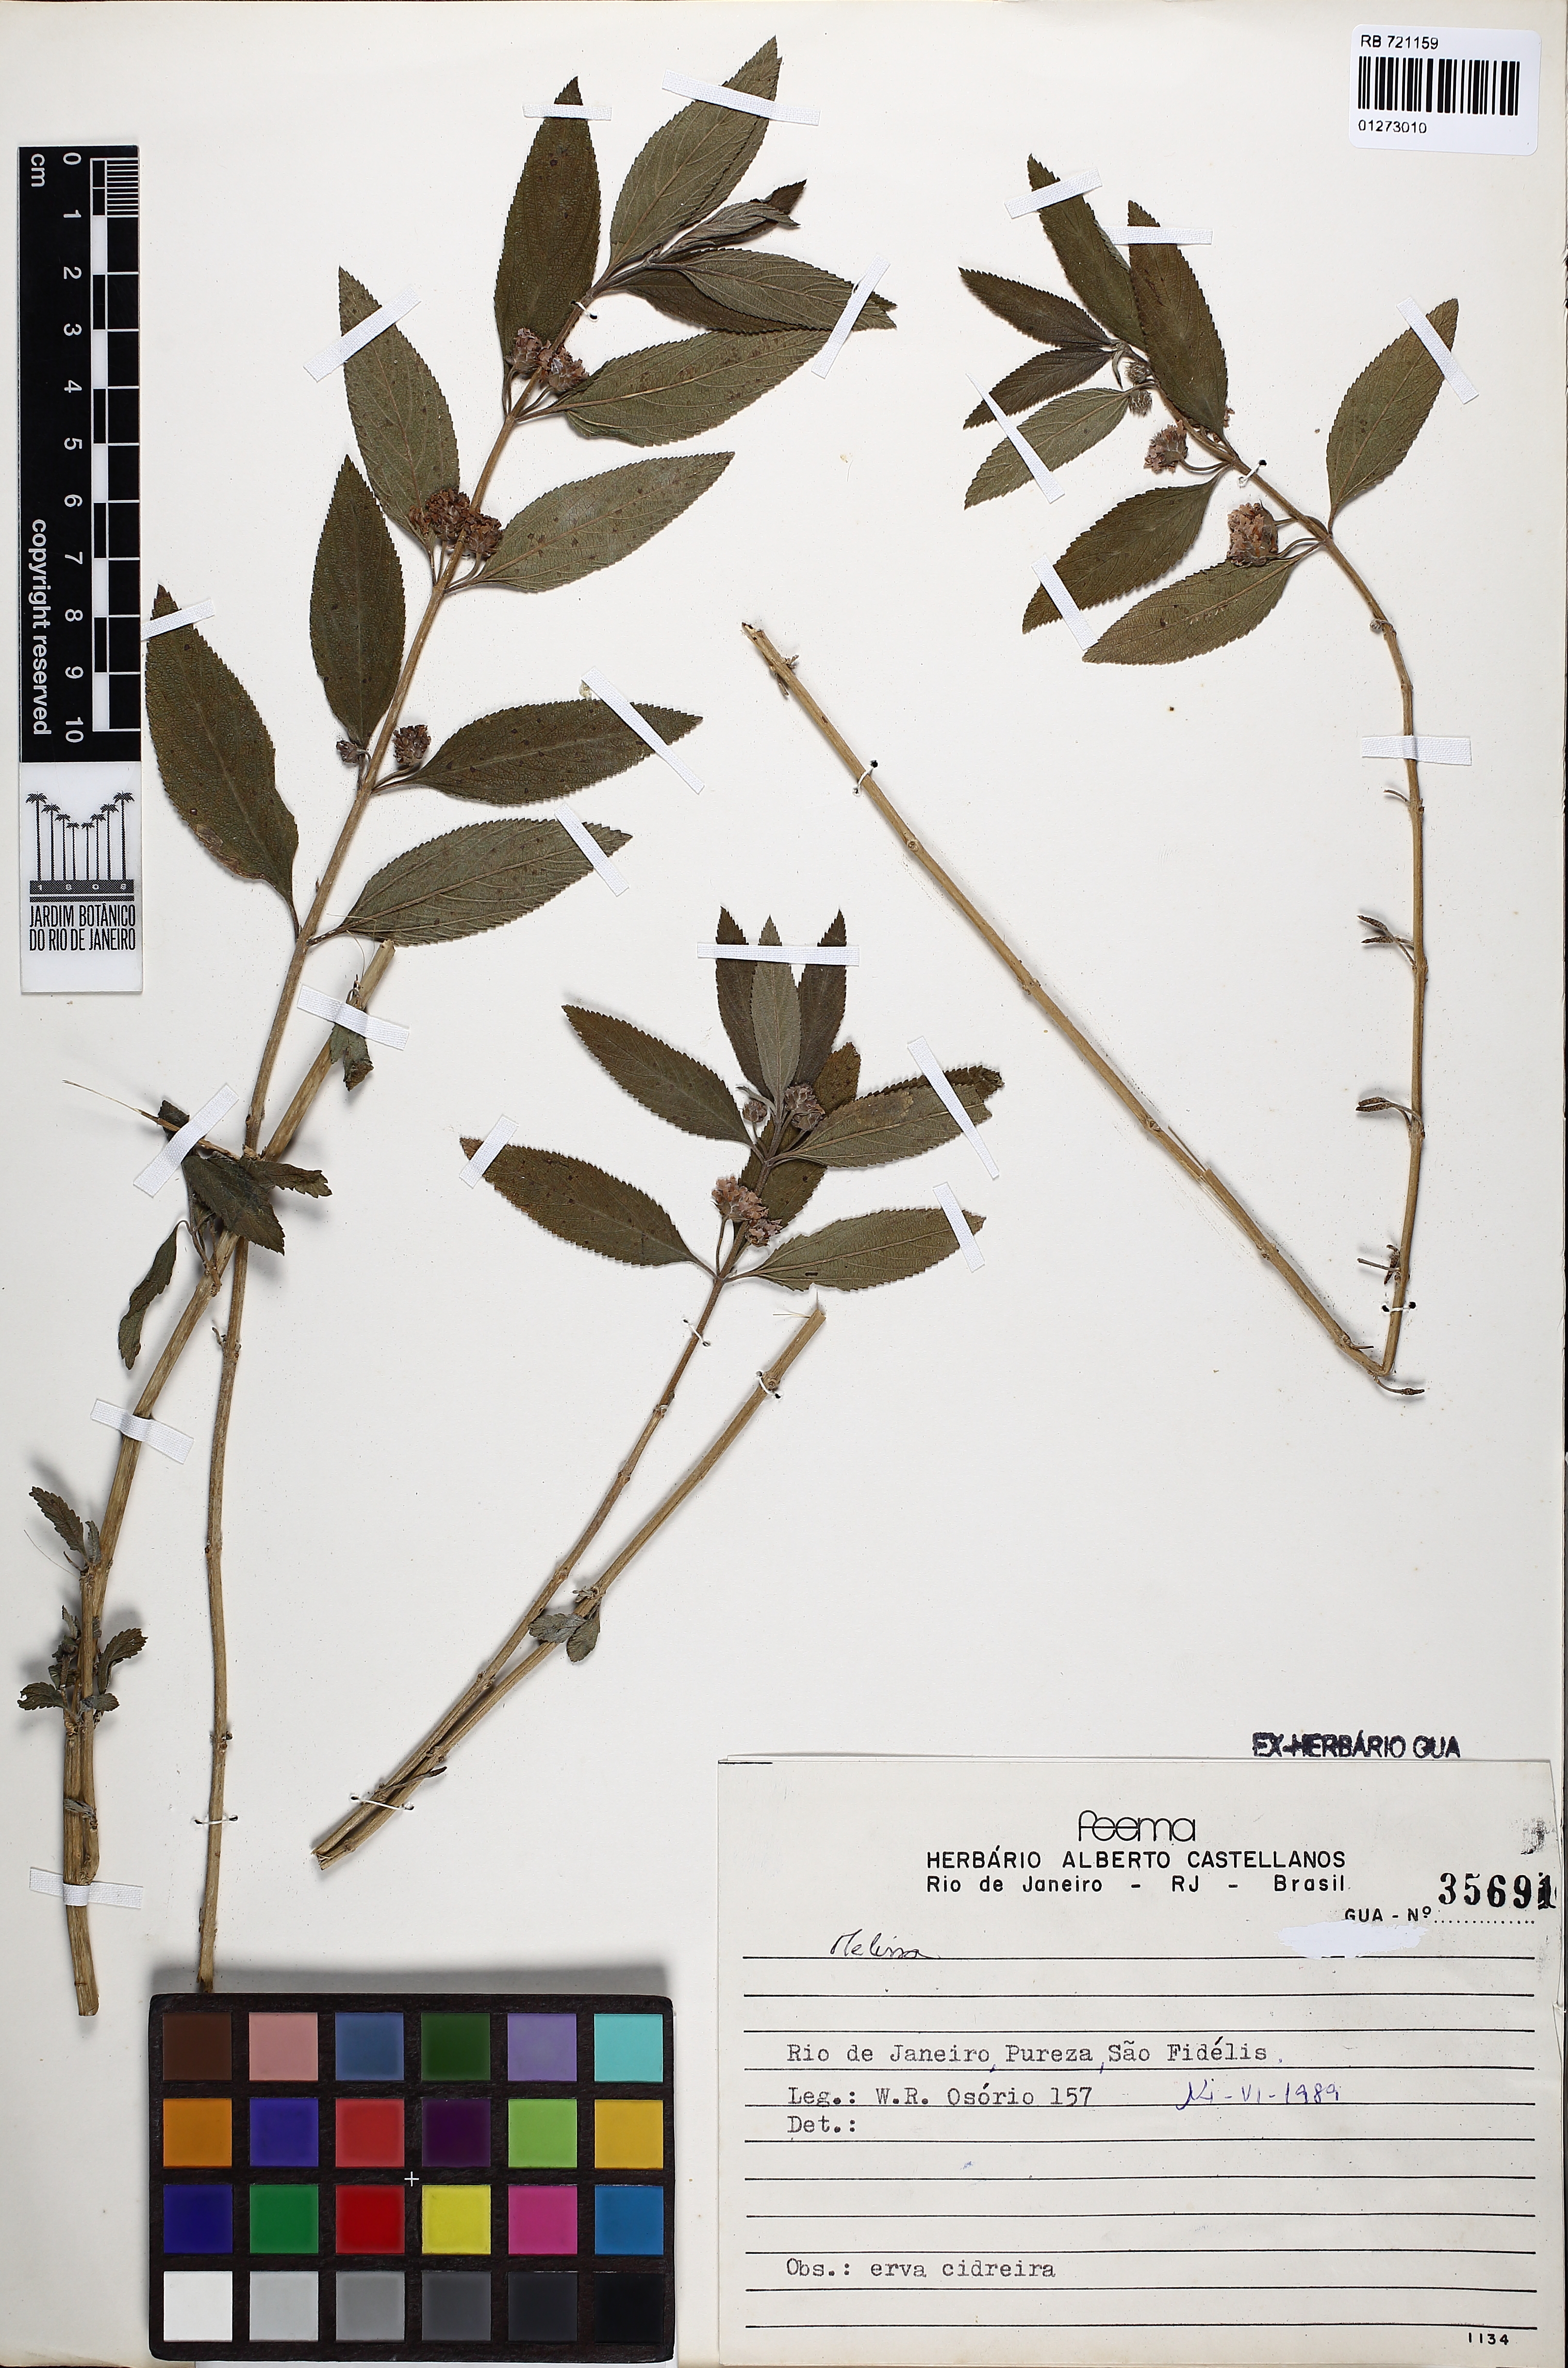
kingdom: Plantae
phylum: Tracheophyta
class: Magnoliopsida
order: Lamiales
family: Lamiaceae
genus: Melissa
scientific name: Melissa
